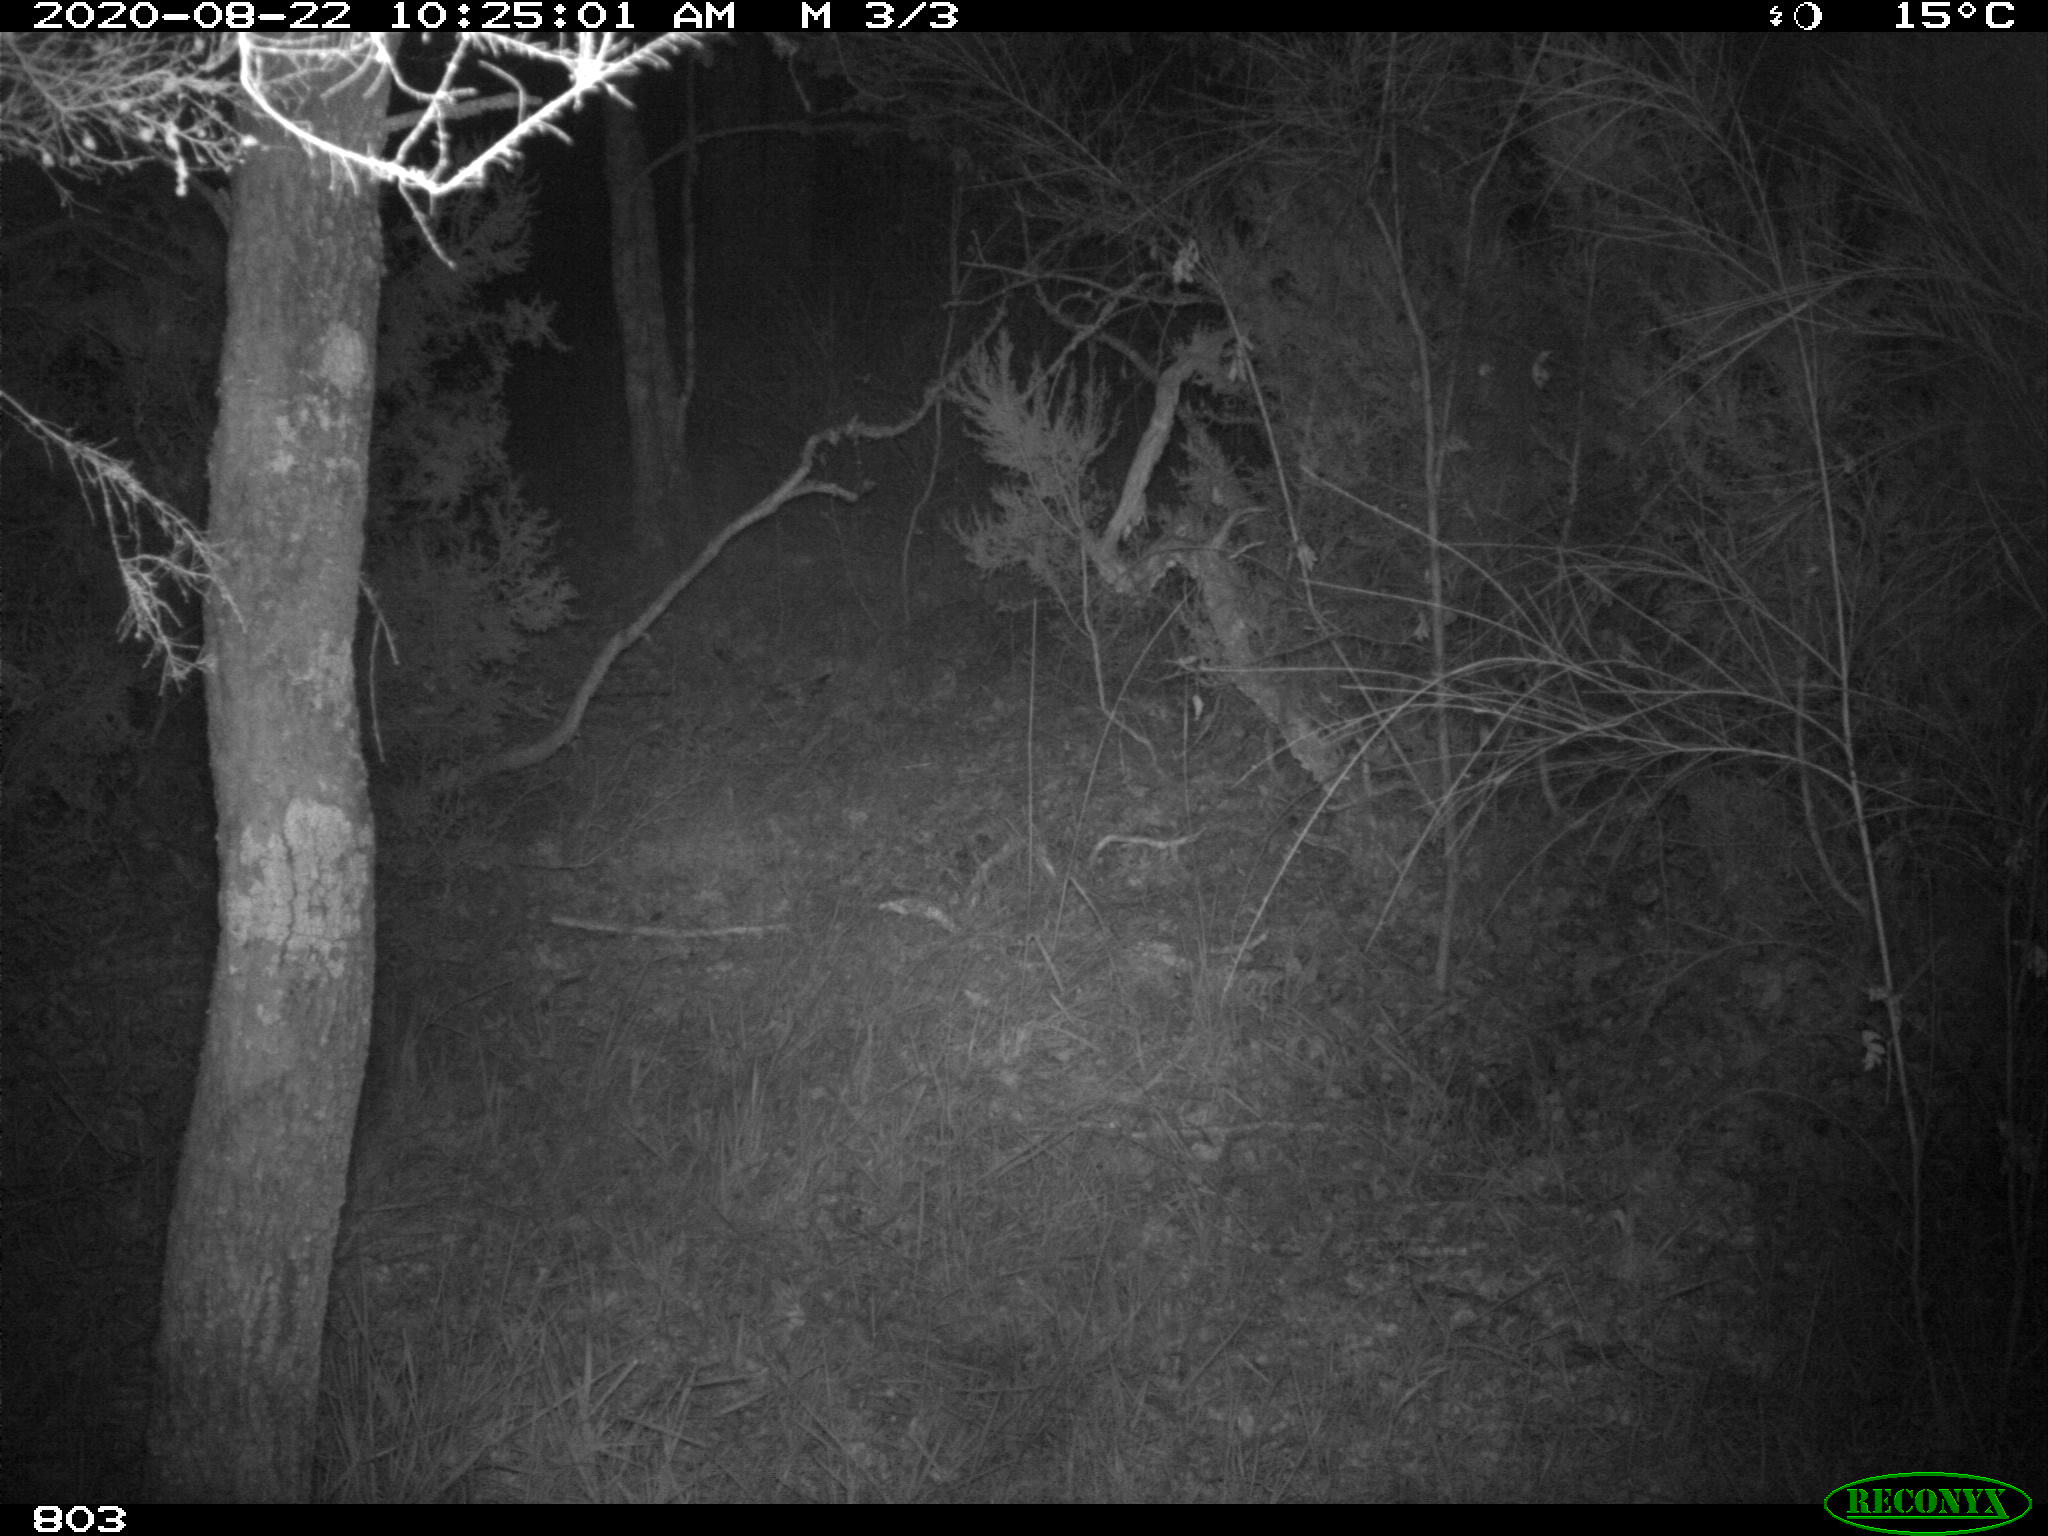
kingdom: Animalia
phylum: Chordata
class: Mammalia
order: Artiodactyla
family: Suidae
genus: Sus
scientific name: Sus scrofa
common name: Wild boar
